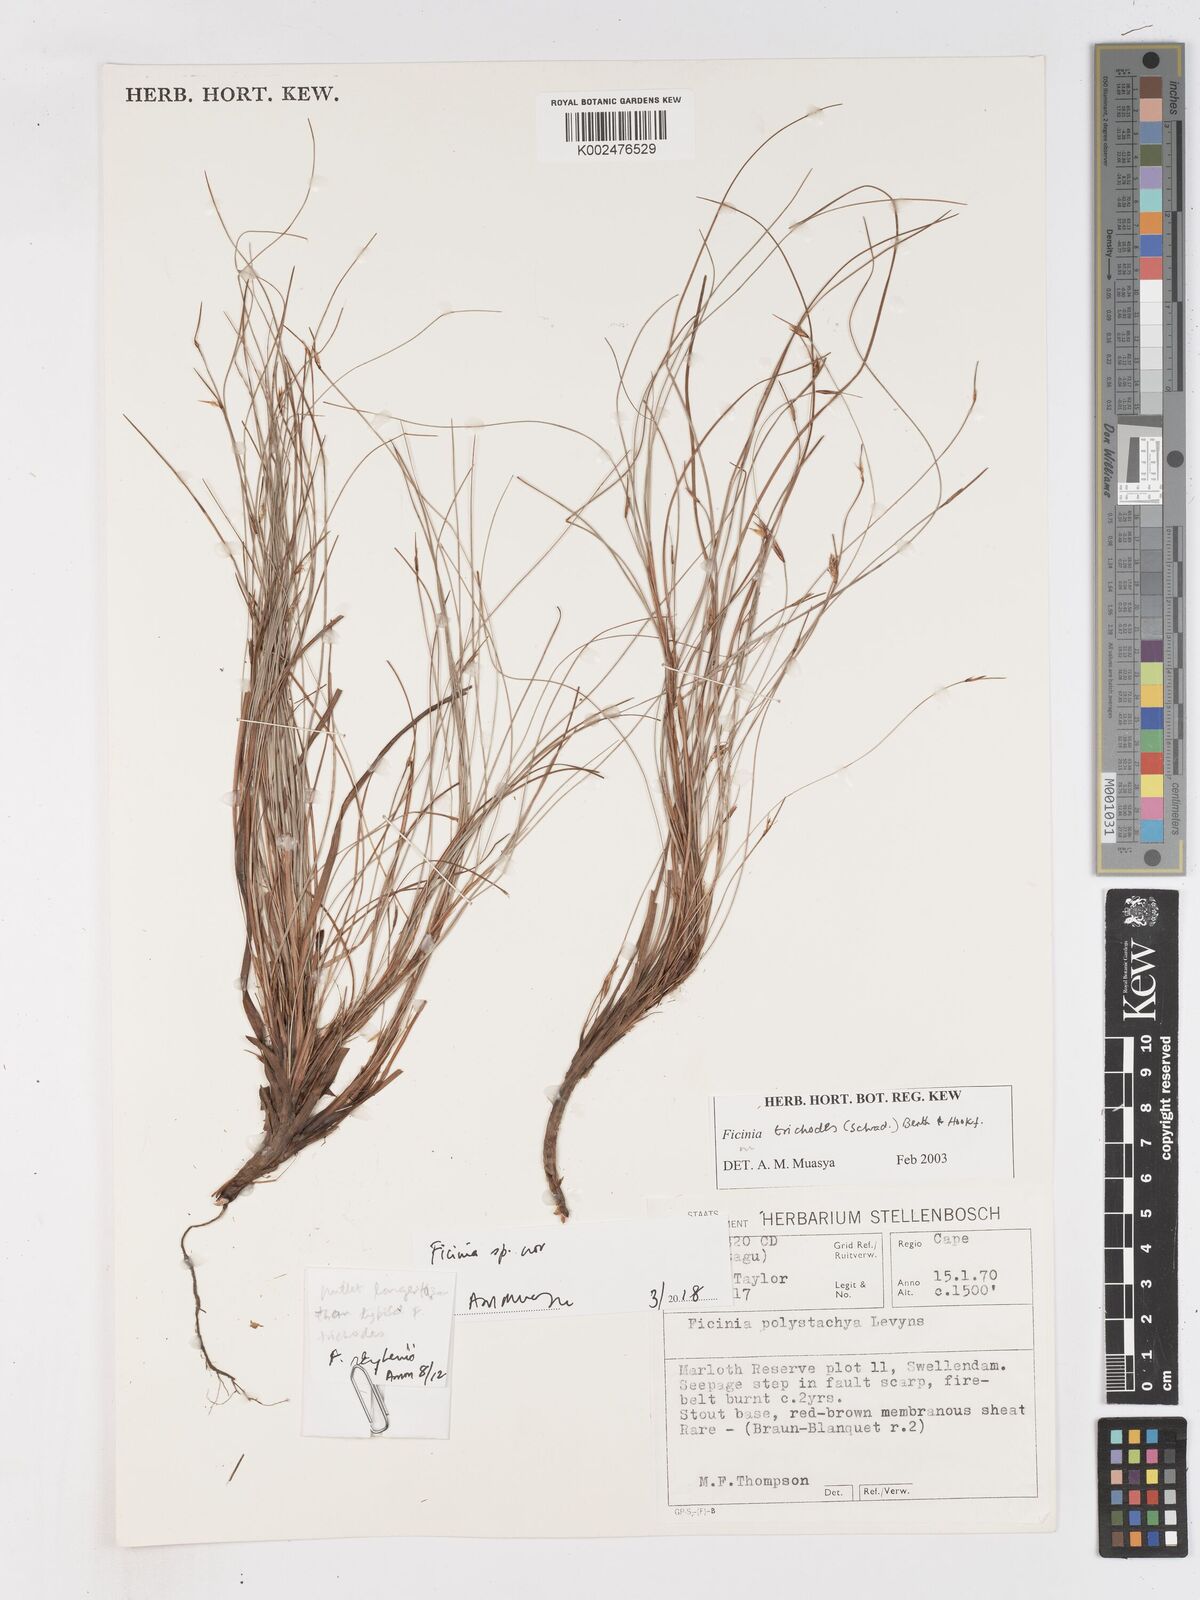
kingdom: Plantae
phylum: Tracheophyta
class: Liliopsida
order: Poales
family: Cyperaceae
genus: Ficinia
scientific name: Ficinia acuminata
